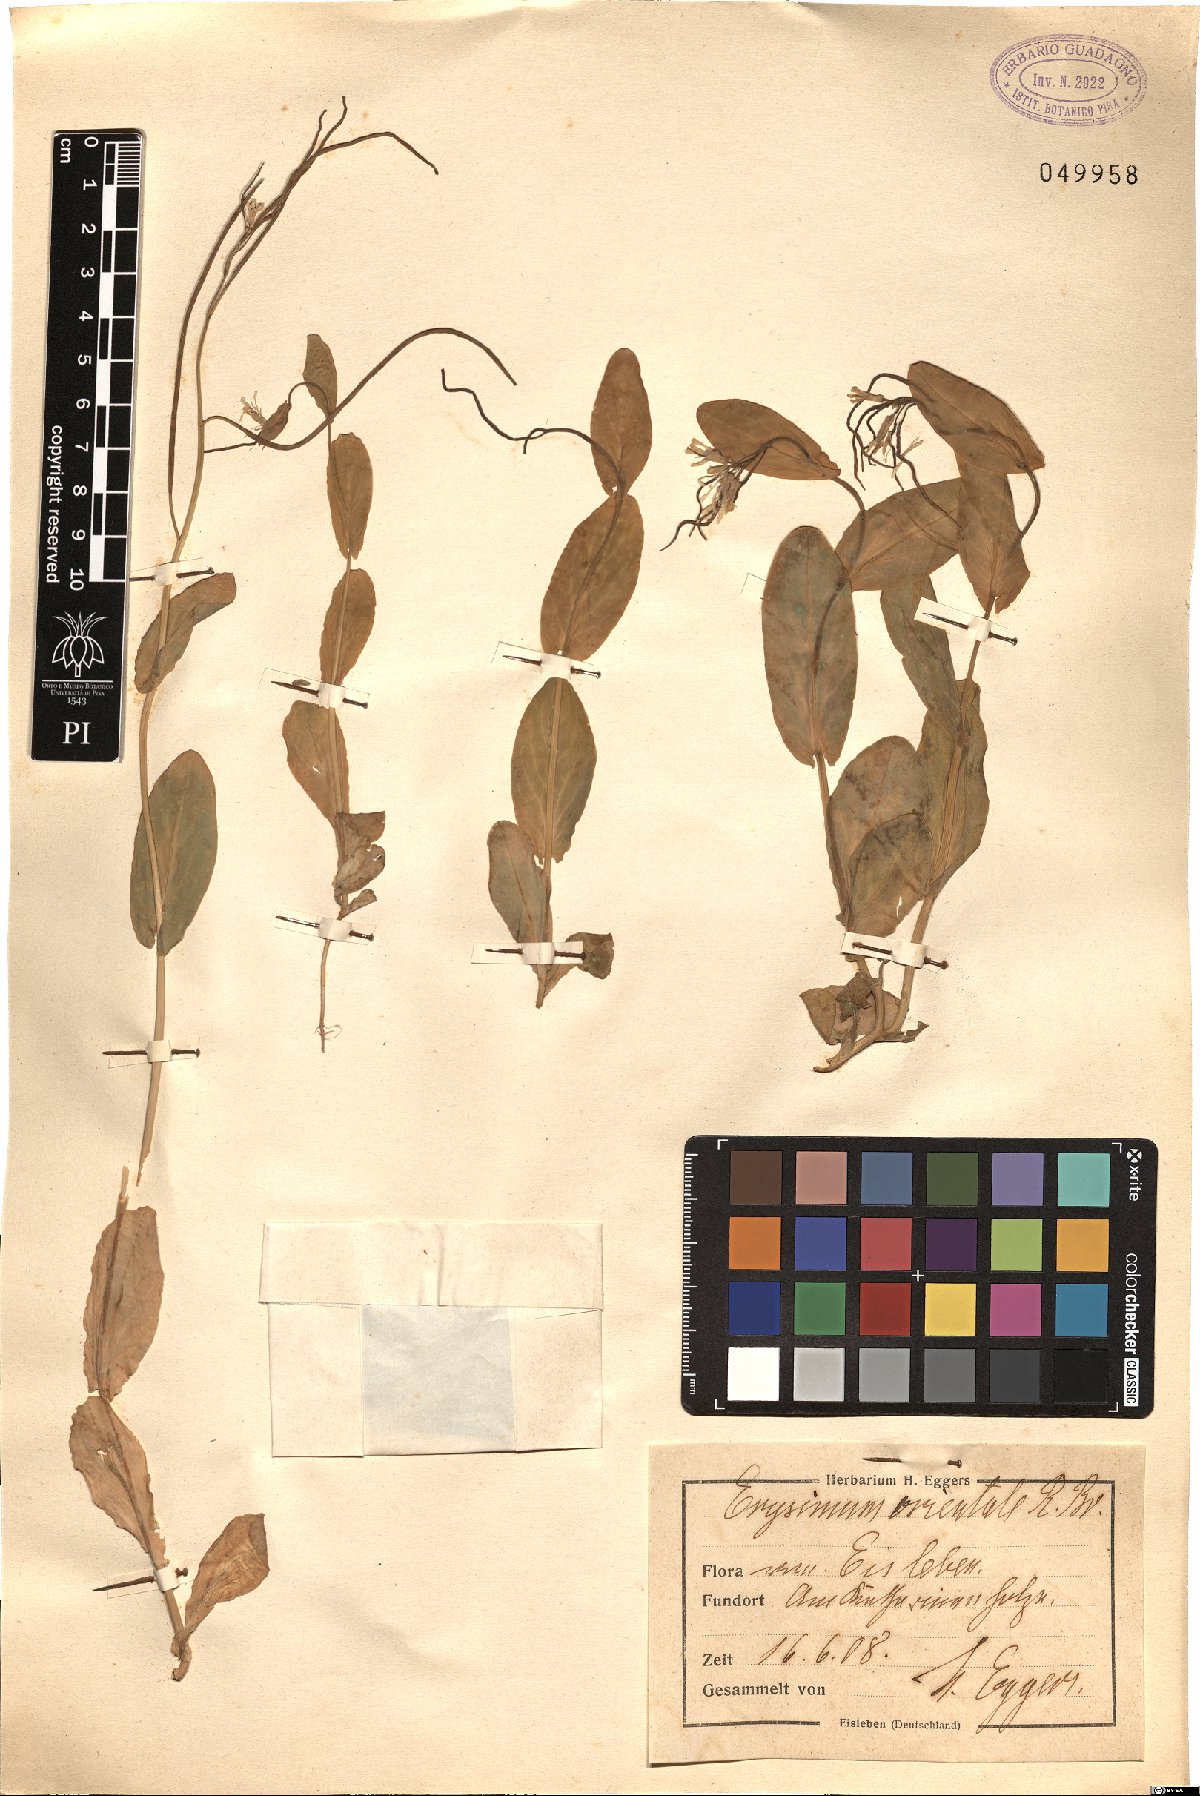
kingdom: Plantae
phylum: Tracheophyta
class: Magnoliopsida
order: Brassicales
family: Brassicaceae
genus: Conringia
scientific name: Conringia orientalis
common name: Hare's ear mustard
